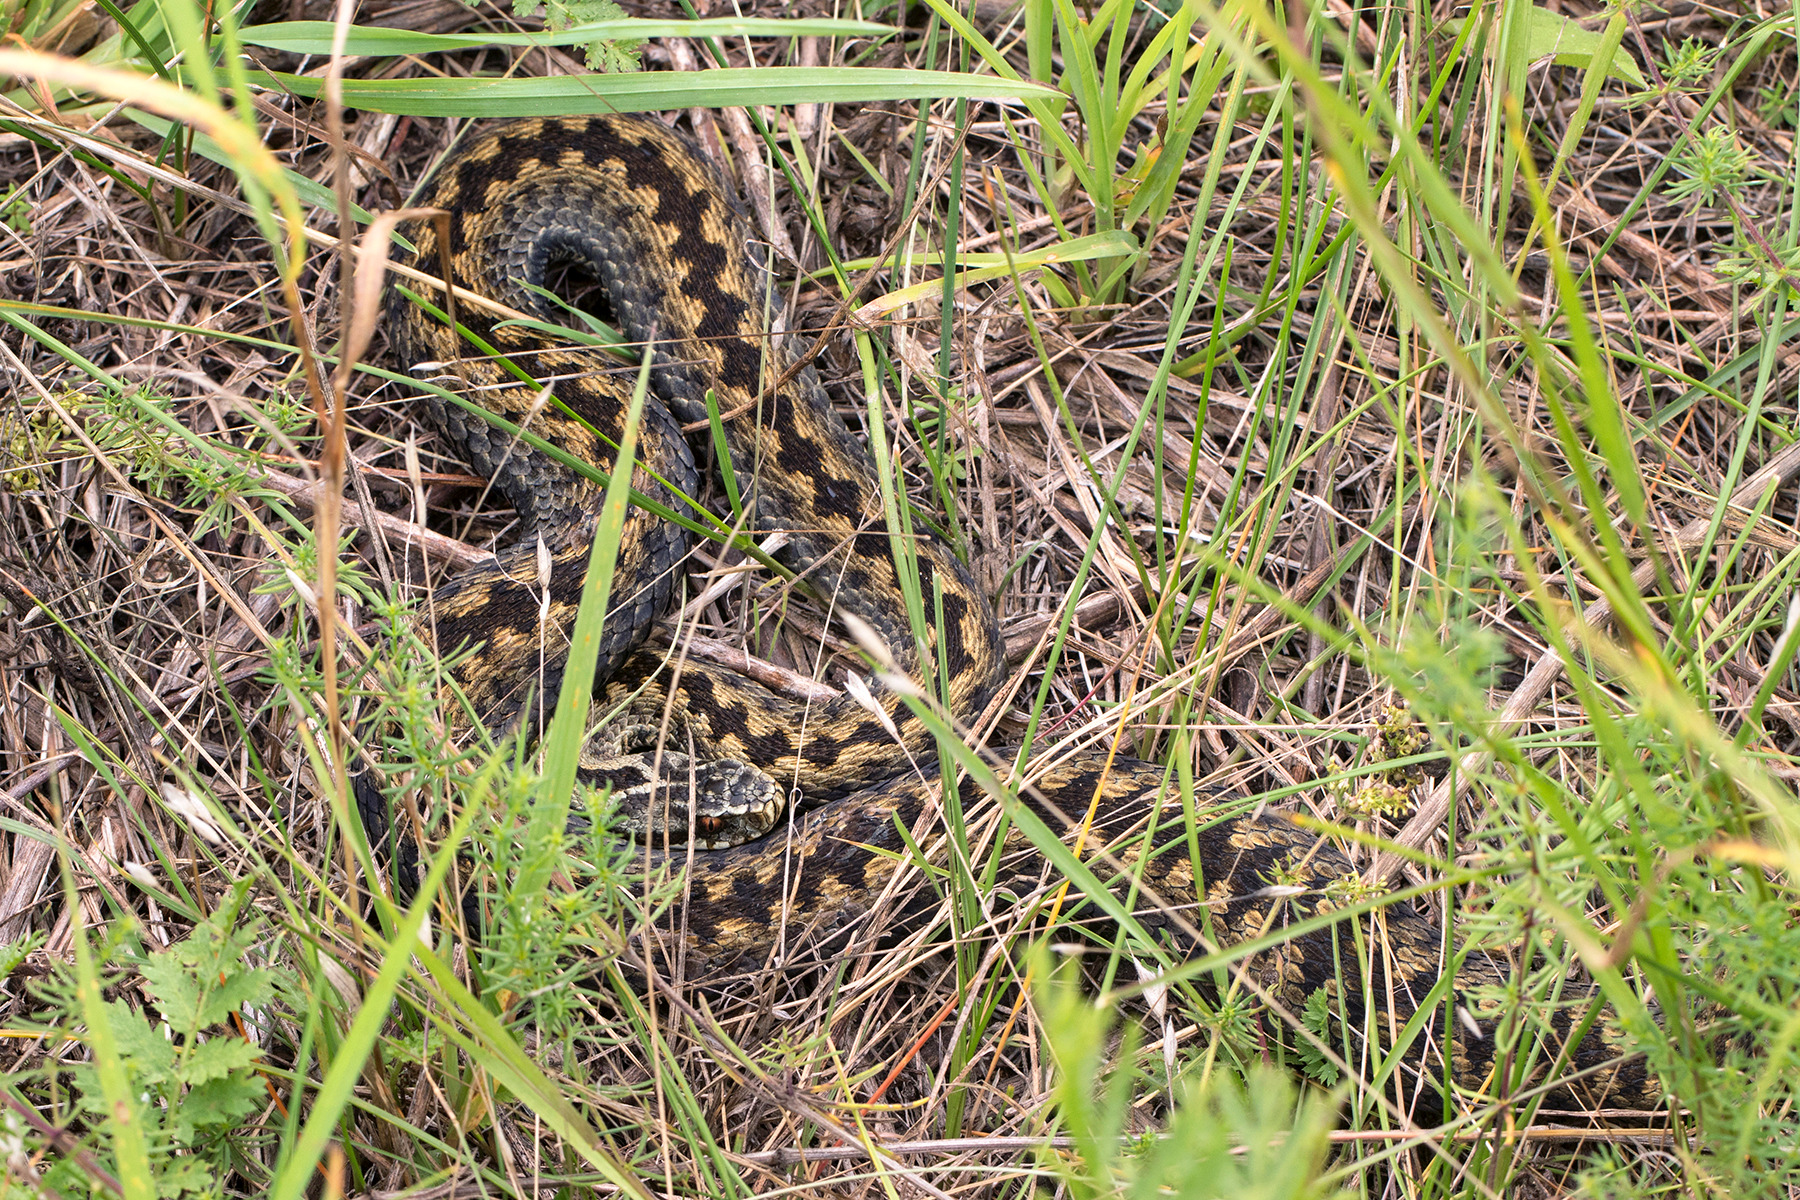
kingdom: Animalia
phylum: Chordata
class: Squamata
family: Viperidae
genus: Vipera
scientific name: Vipera berus
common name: Hugorm
